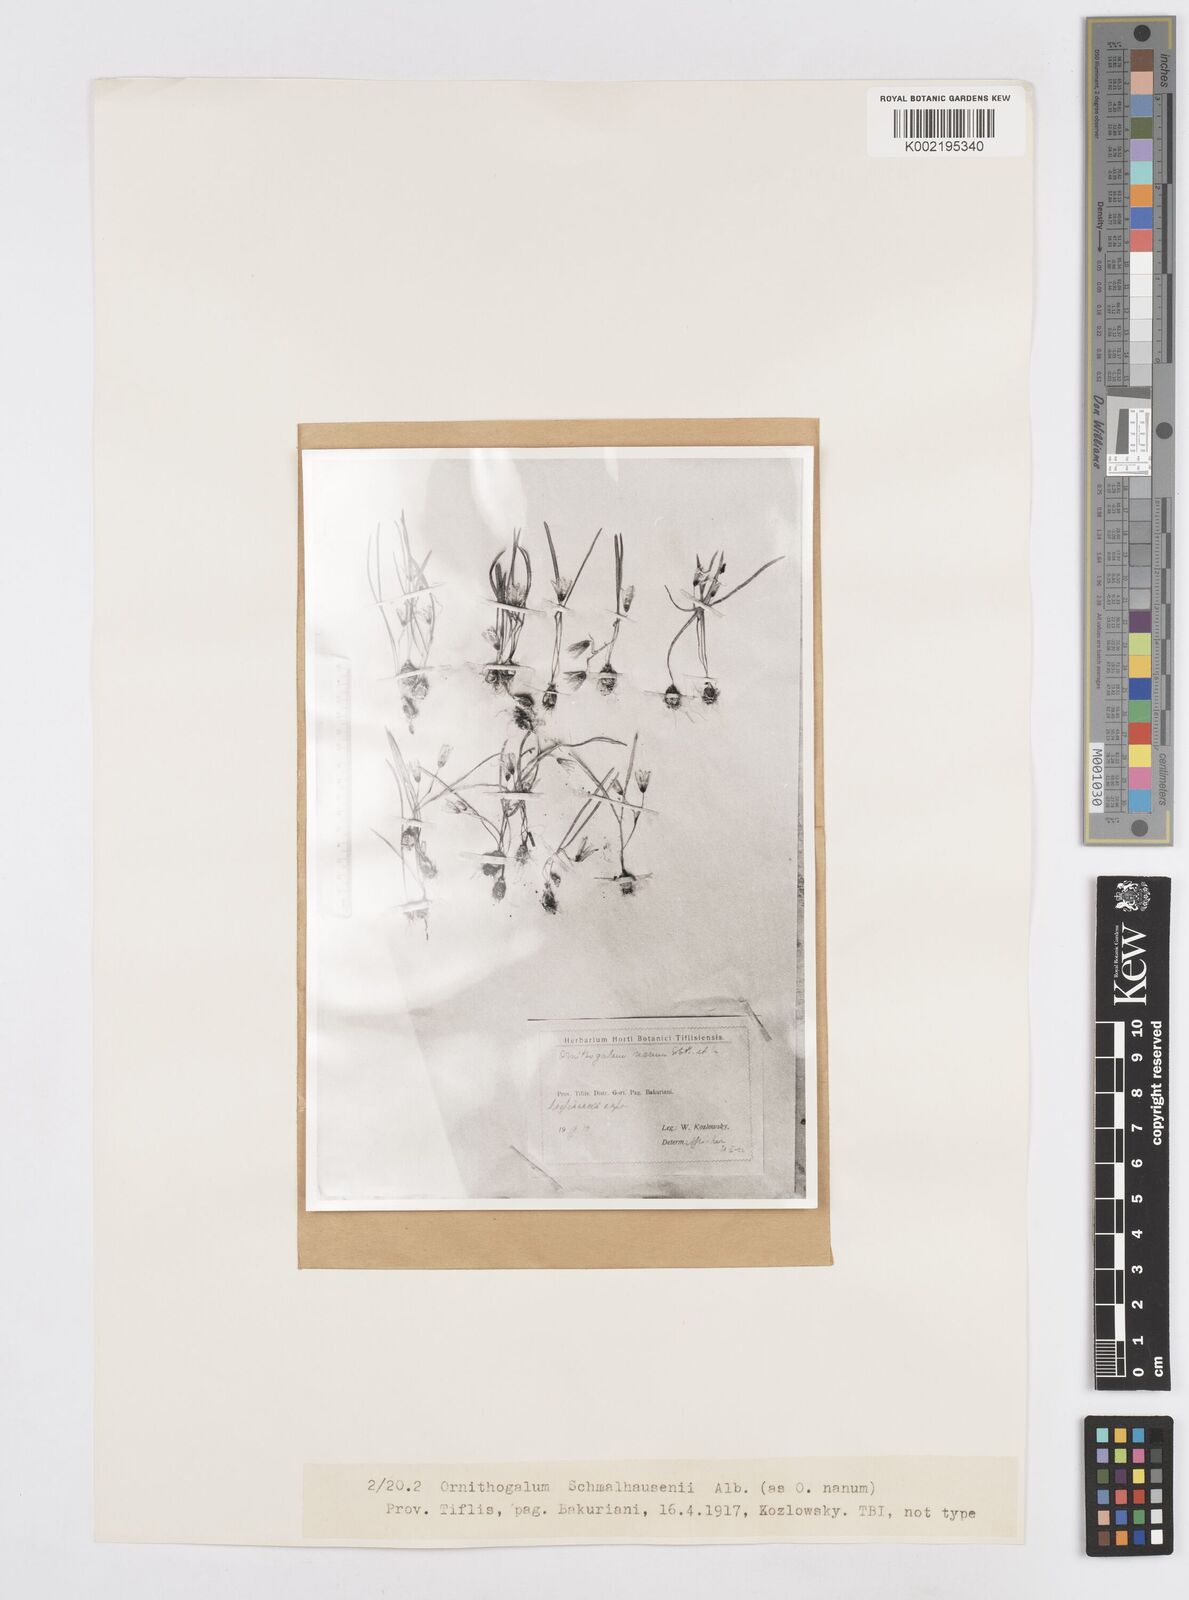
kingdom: Plantae
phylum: Tracheophyta
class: Liliopsida
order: Asparagales
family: Asparagaceae
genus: Ornithogalum
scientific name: Ornithogalum balansae
